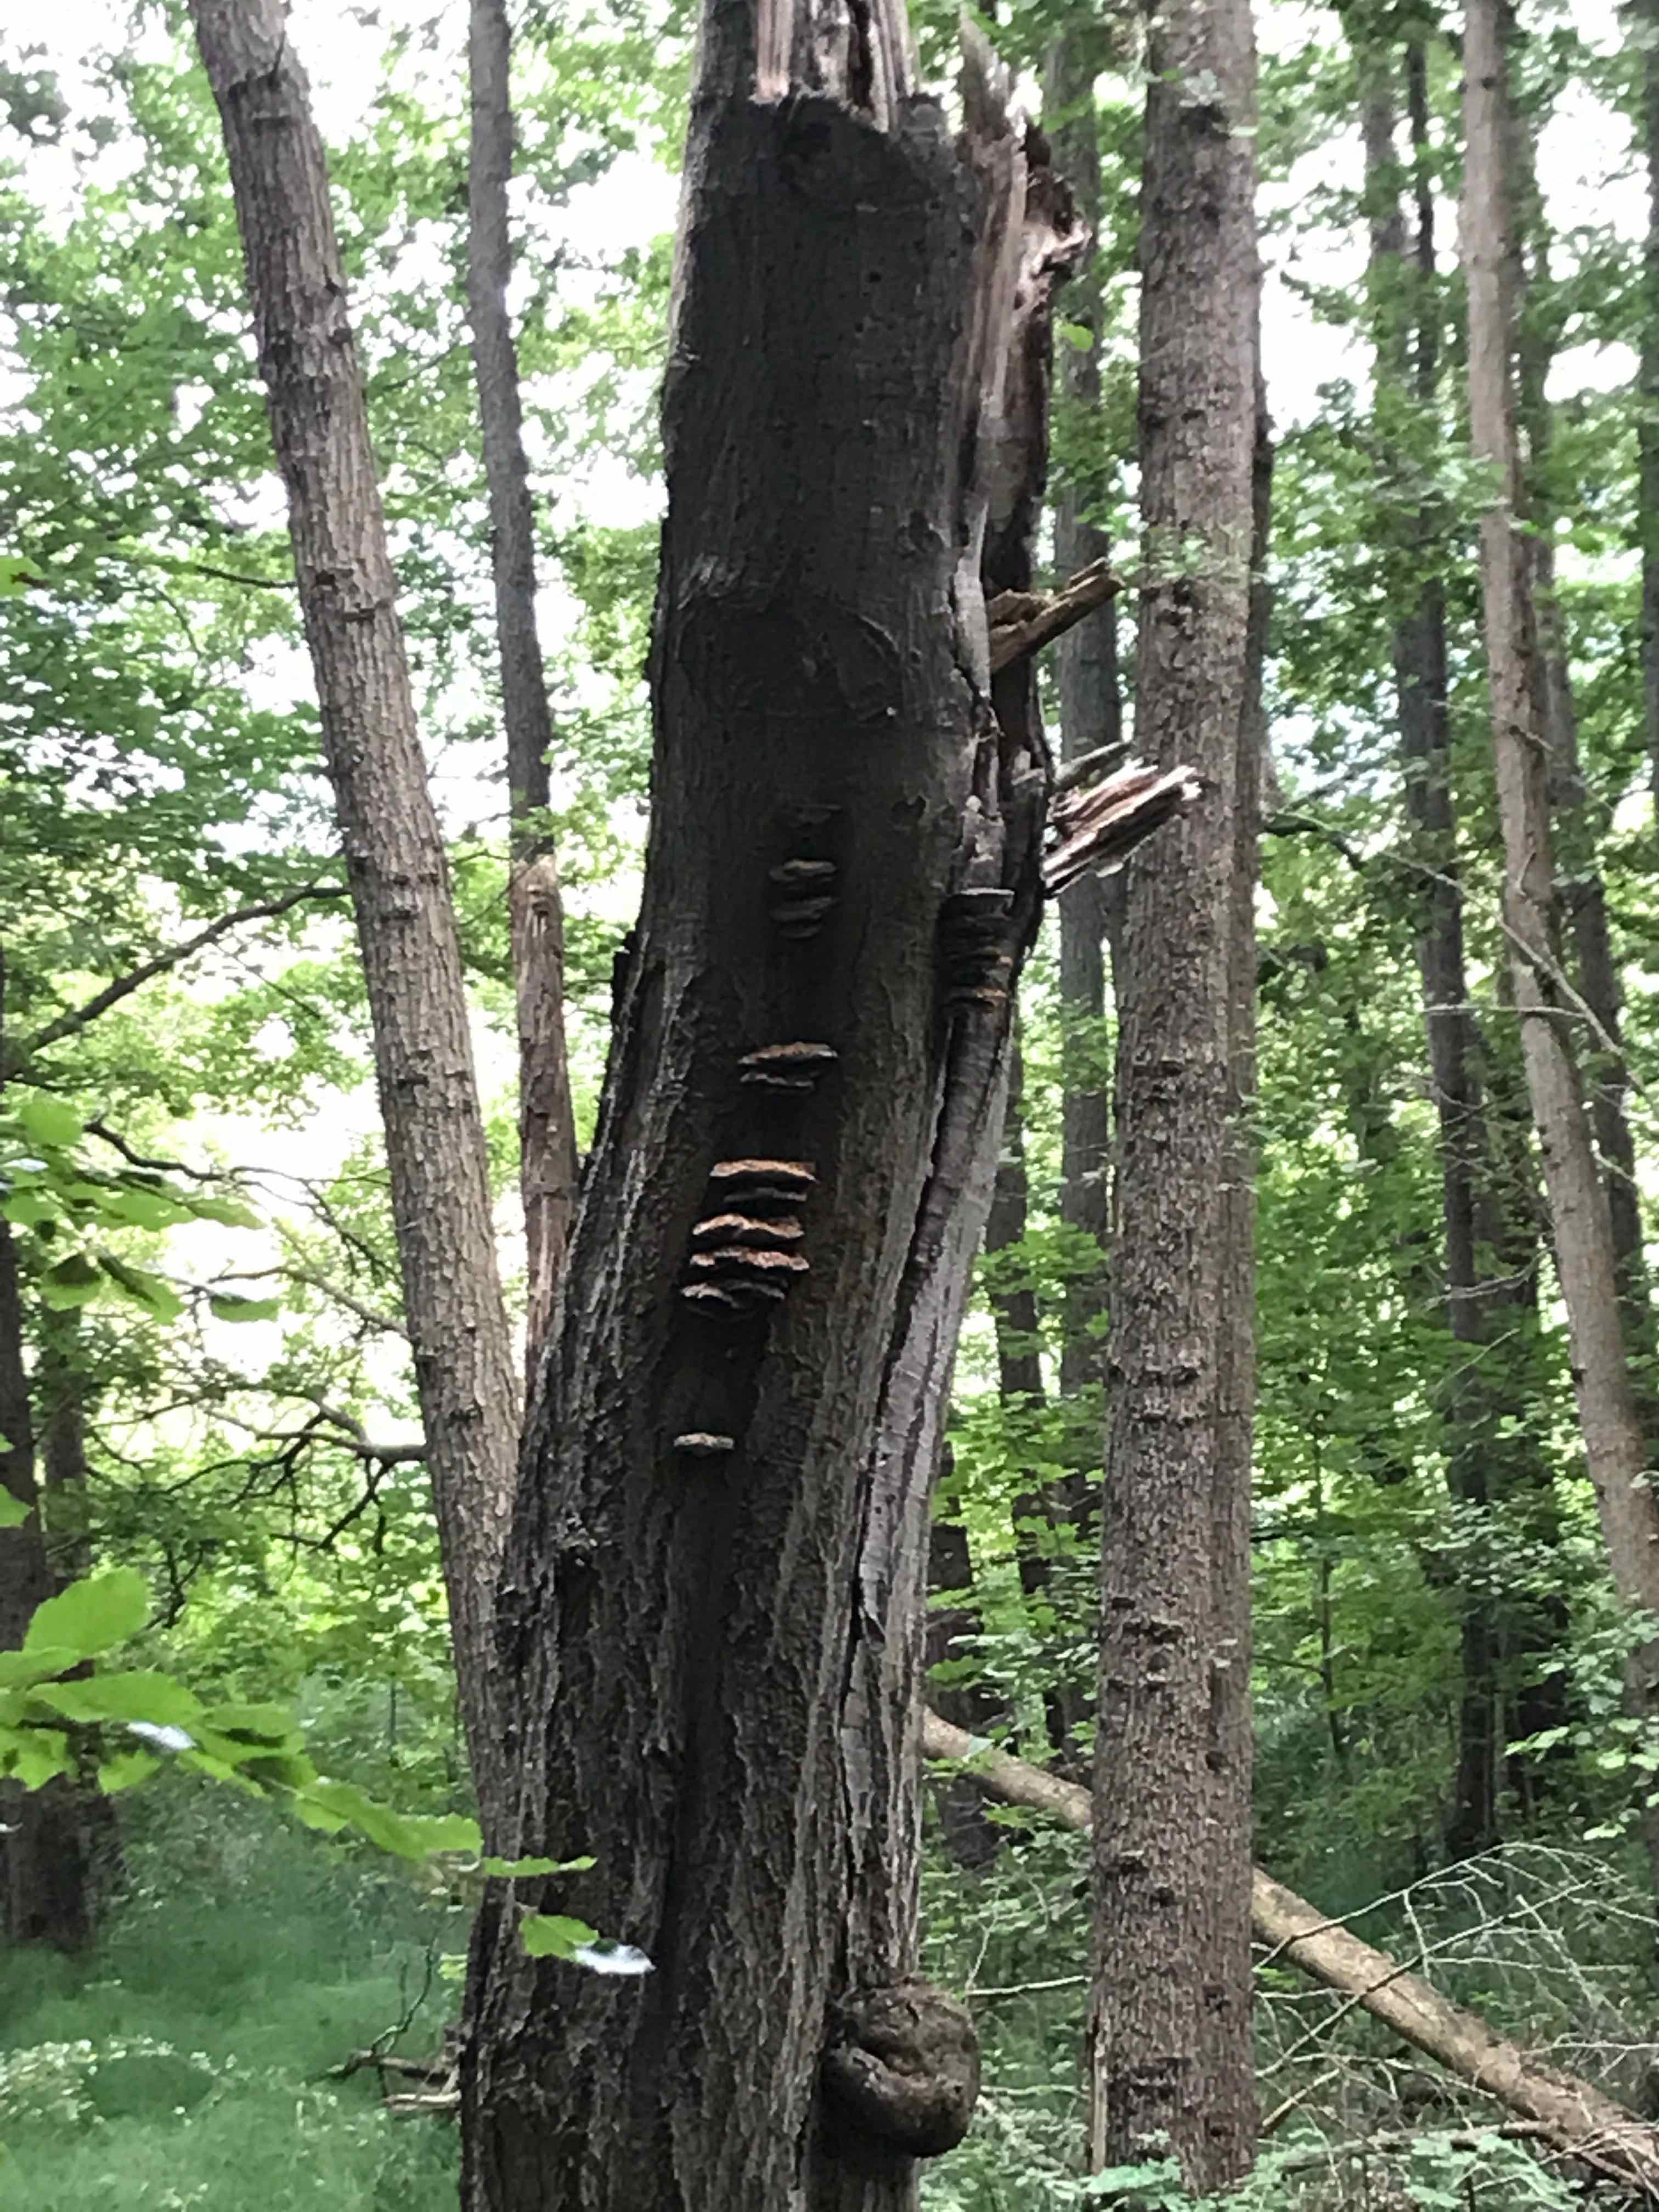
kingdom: Fungi
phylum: Basidiomycota
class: Agaricomycetes
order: Hymenochaetales
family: Hymenochaetaceae
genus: Inonotus
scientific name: Inonotus cuticularis
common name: kroghåret spejlporesvamp
